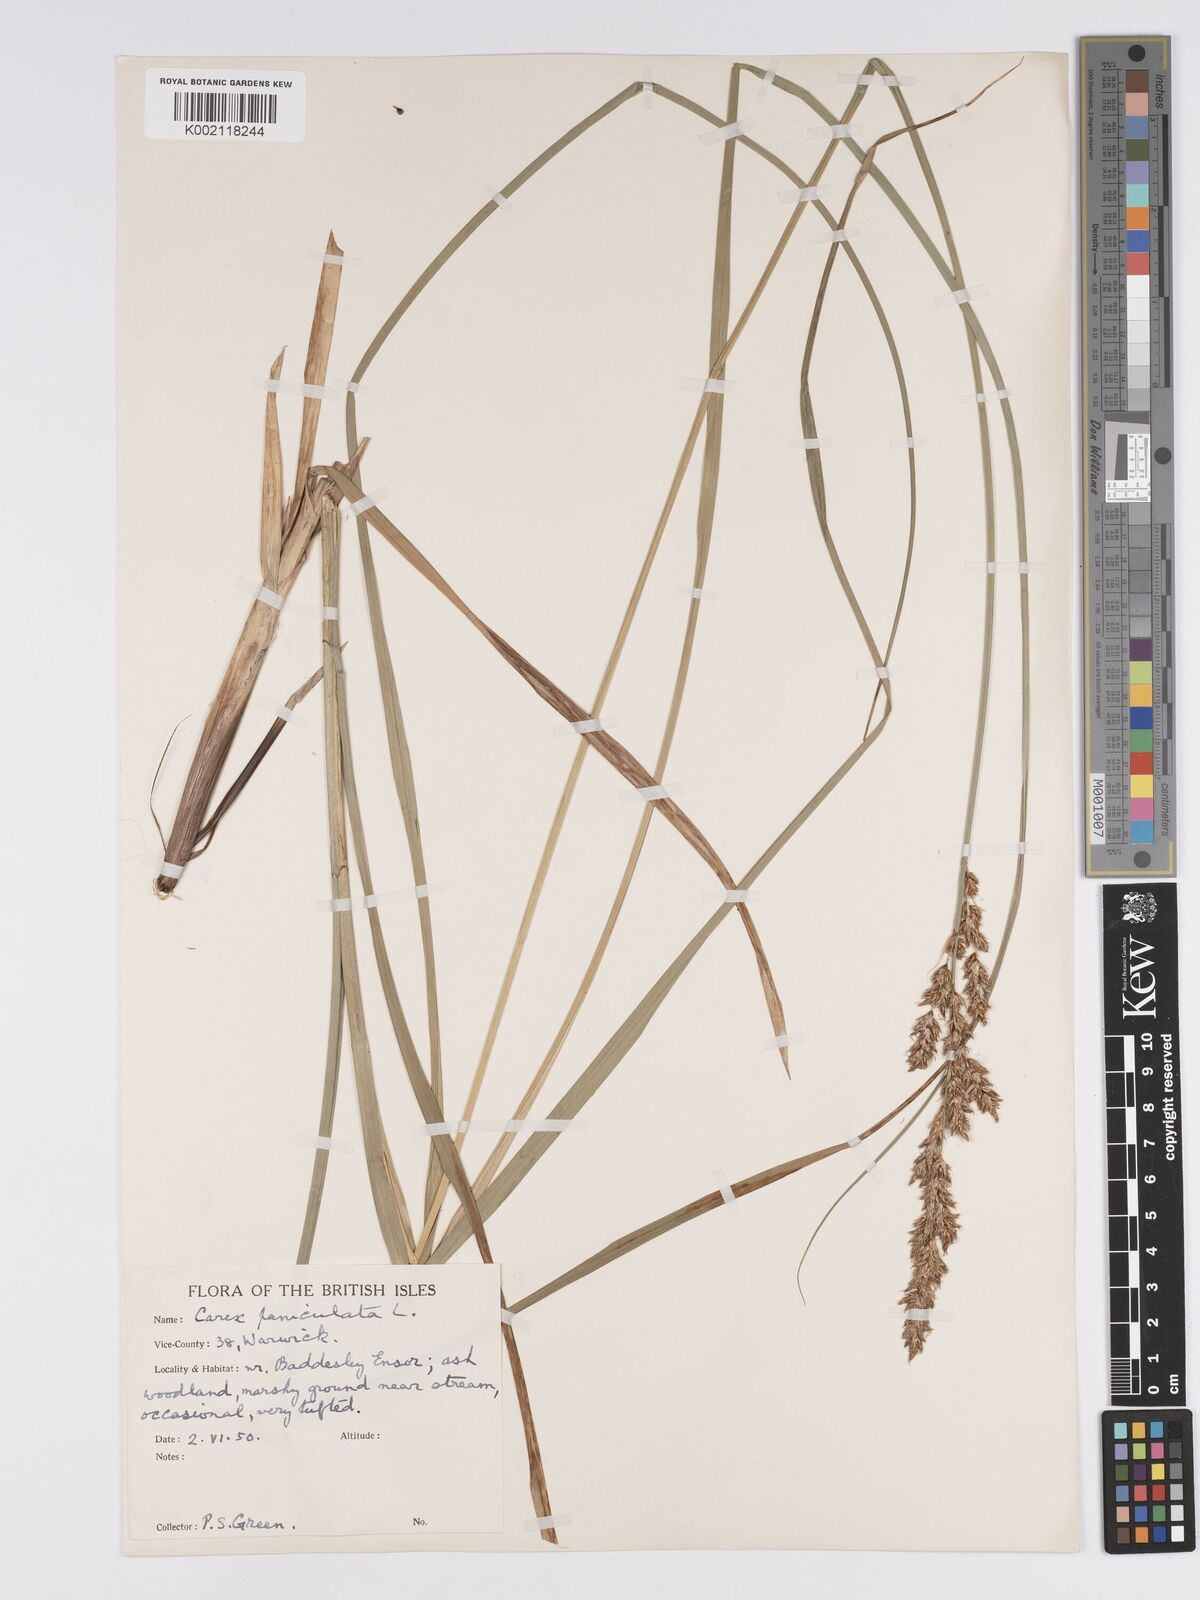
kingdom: Plantae
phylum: Tracheophyta
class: Liliopsida
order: Poales
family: Cyperaceae
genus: Carex
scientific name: Carex paniculata
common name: Greater tussock-sedge
